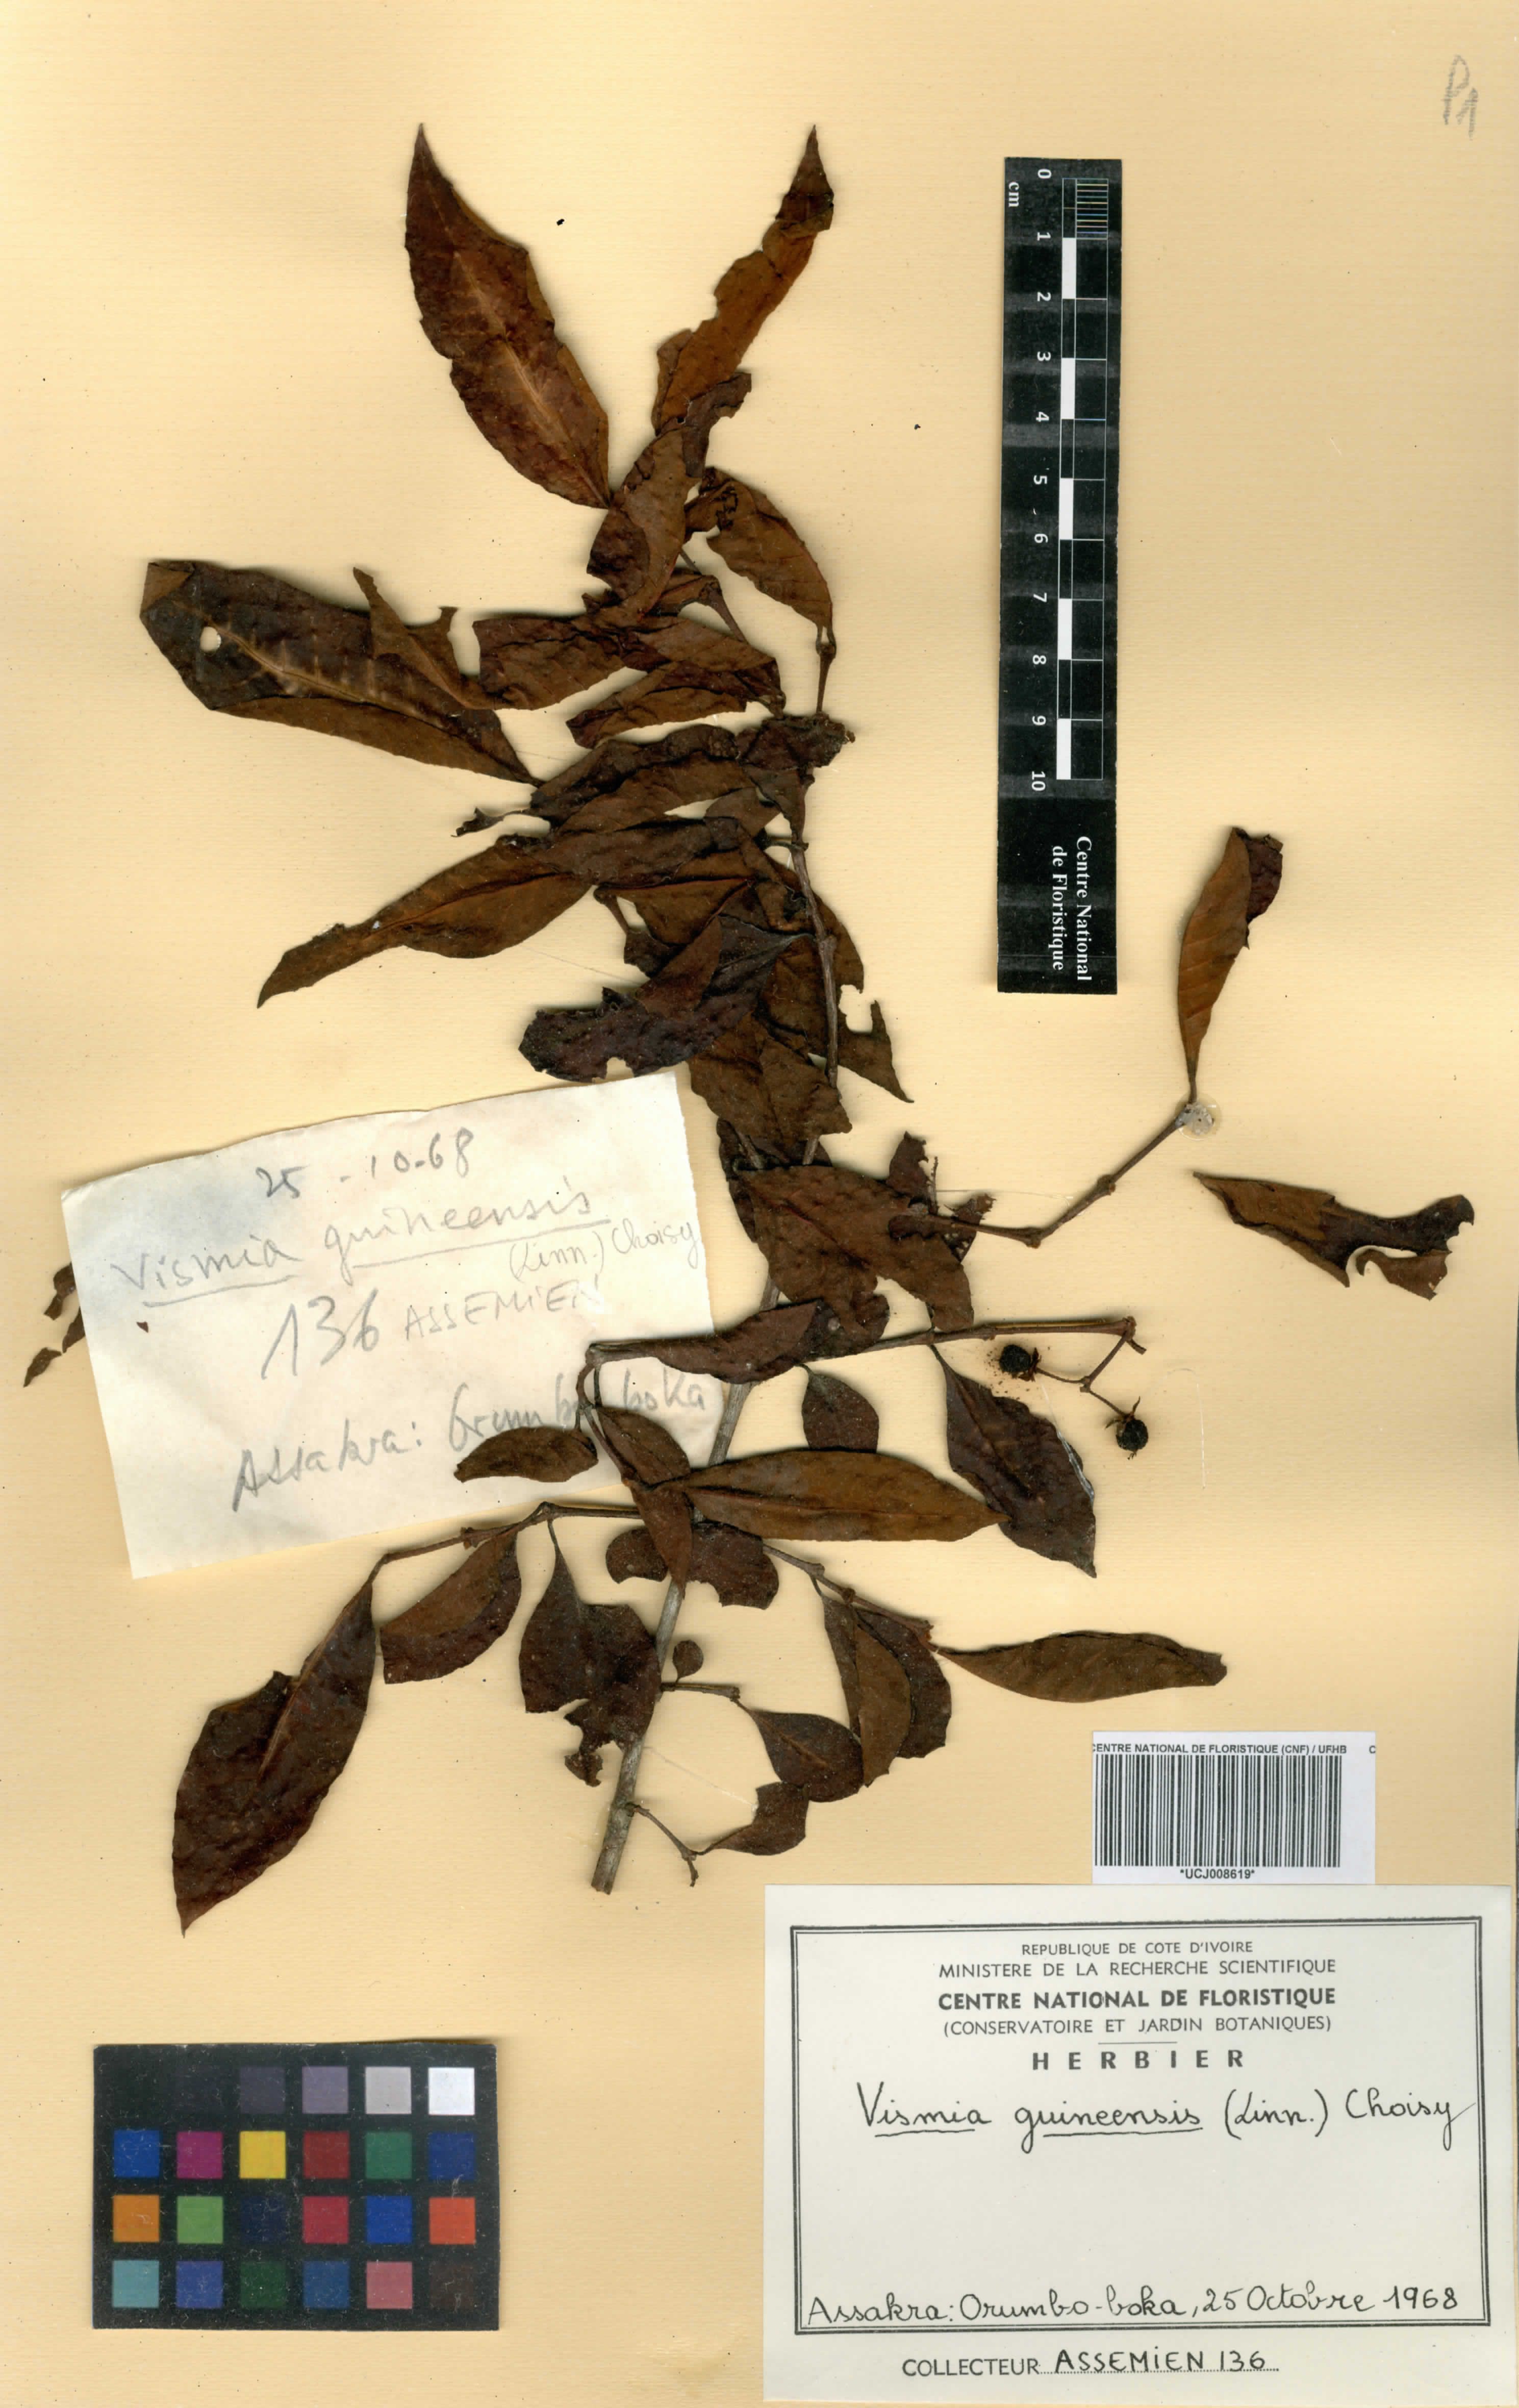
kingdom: Plantae
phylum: Tracheophyta
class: Magnoliopsida
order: Malpighiales
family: Hypericaceae
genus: Psorospermum
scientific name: Psorospermum guineense
